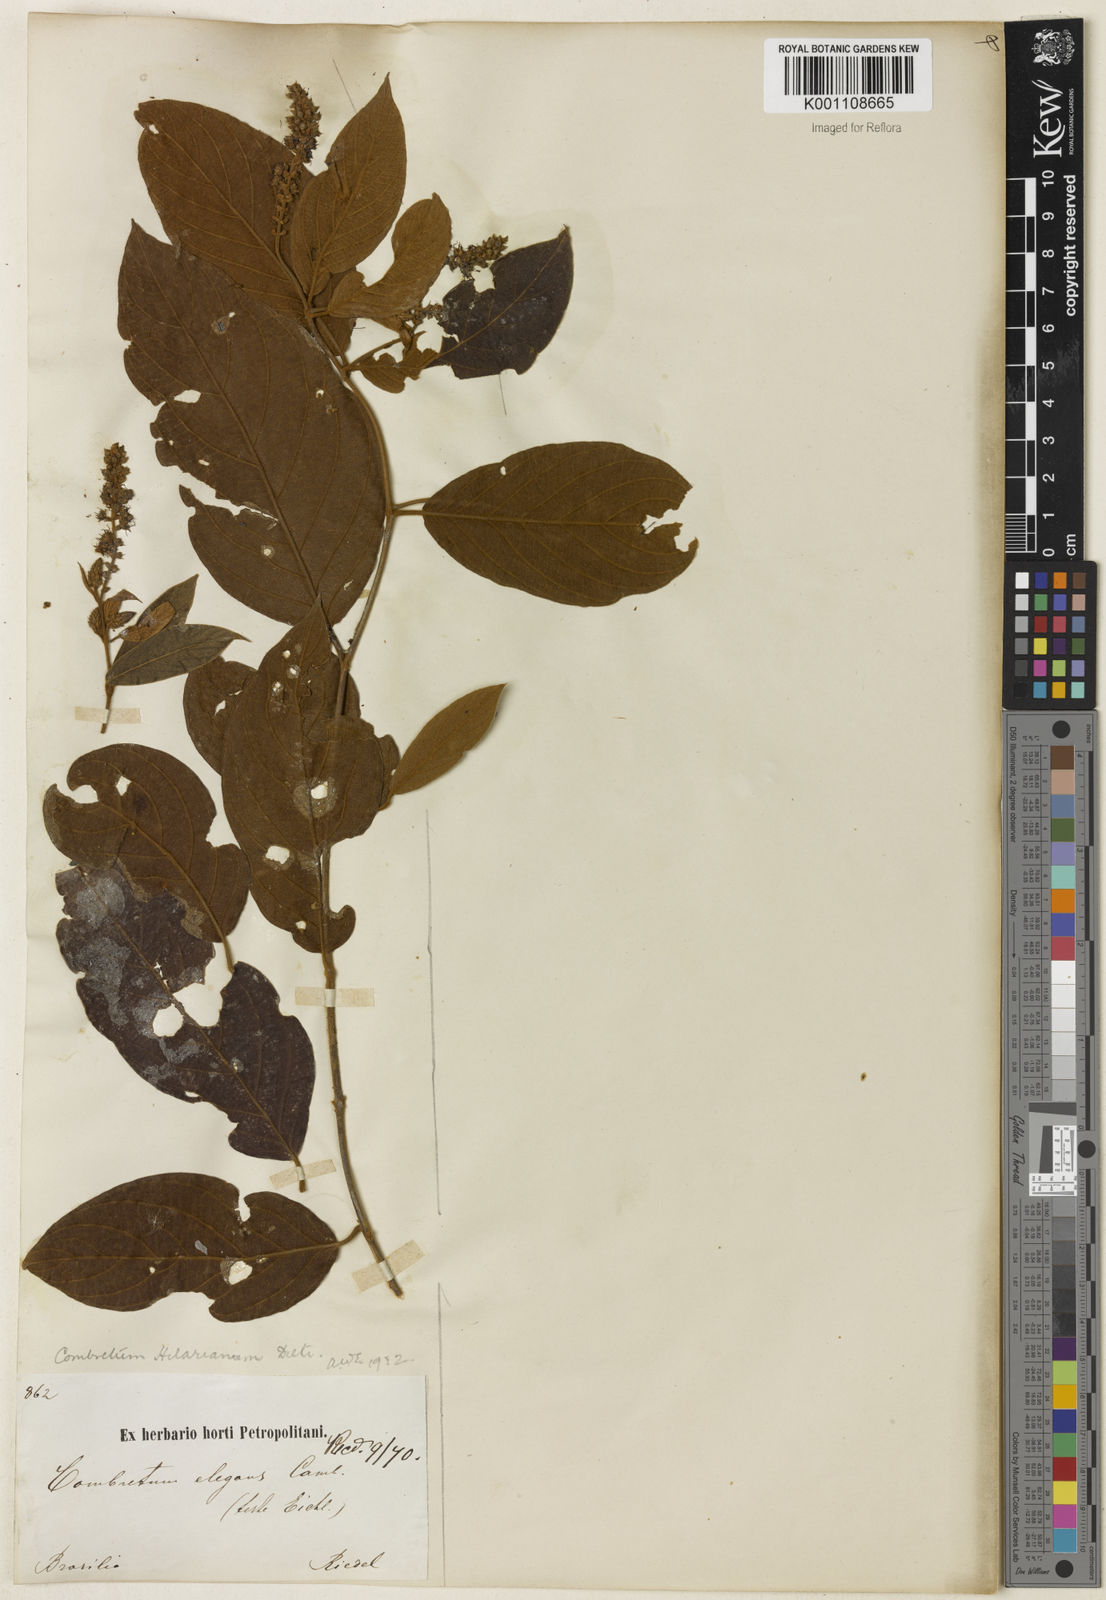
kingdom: Plantae
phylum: Tracheophyta
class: Magnoliopsida
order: Myrtales
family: Combretaceae
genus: Combretum
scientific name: Combretum hilarianum
